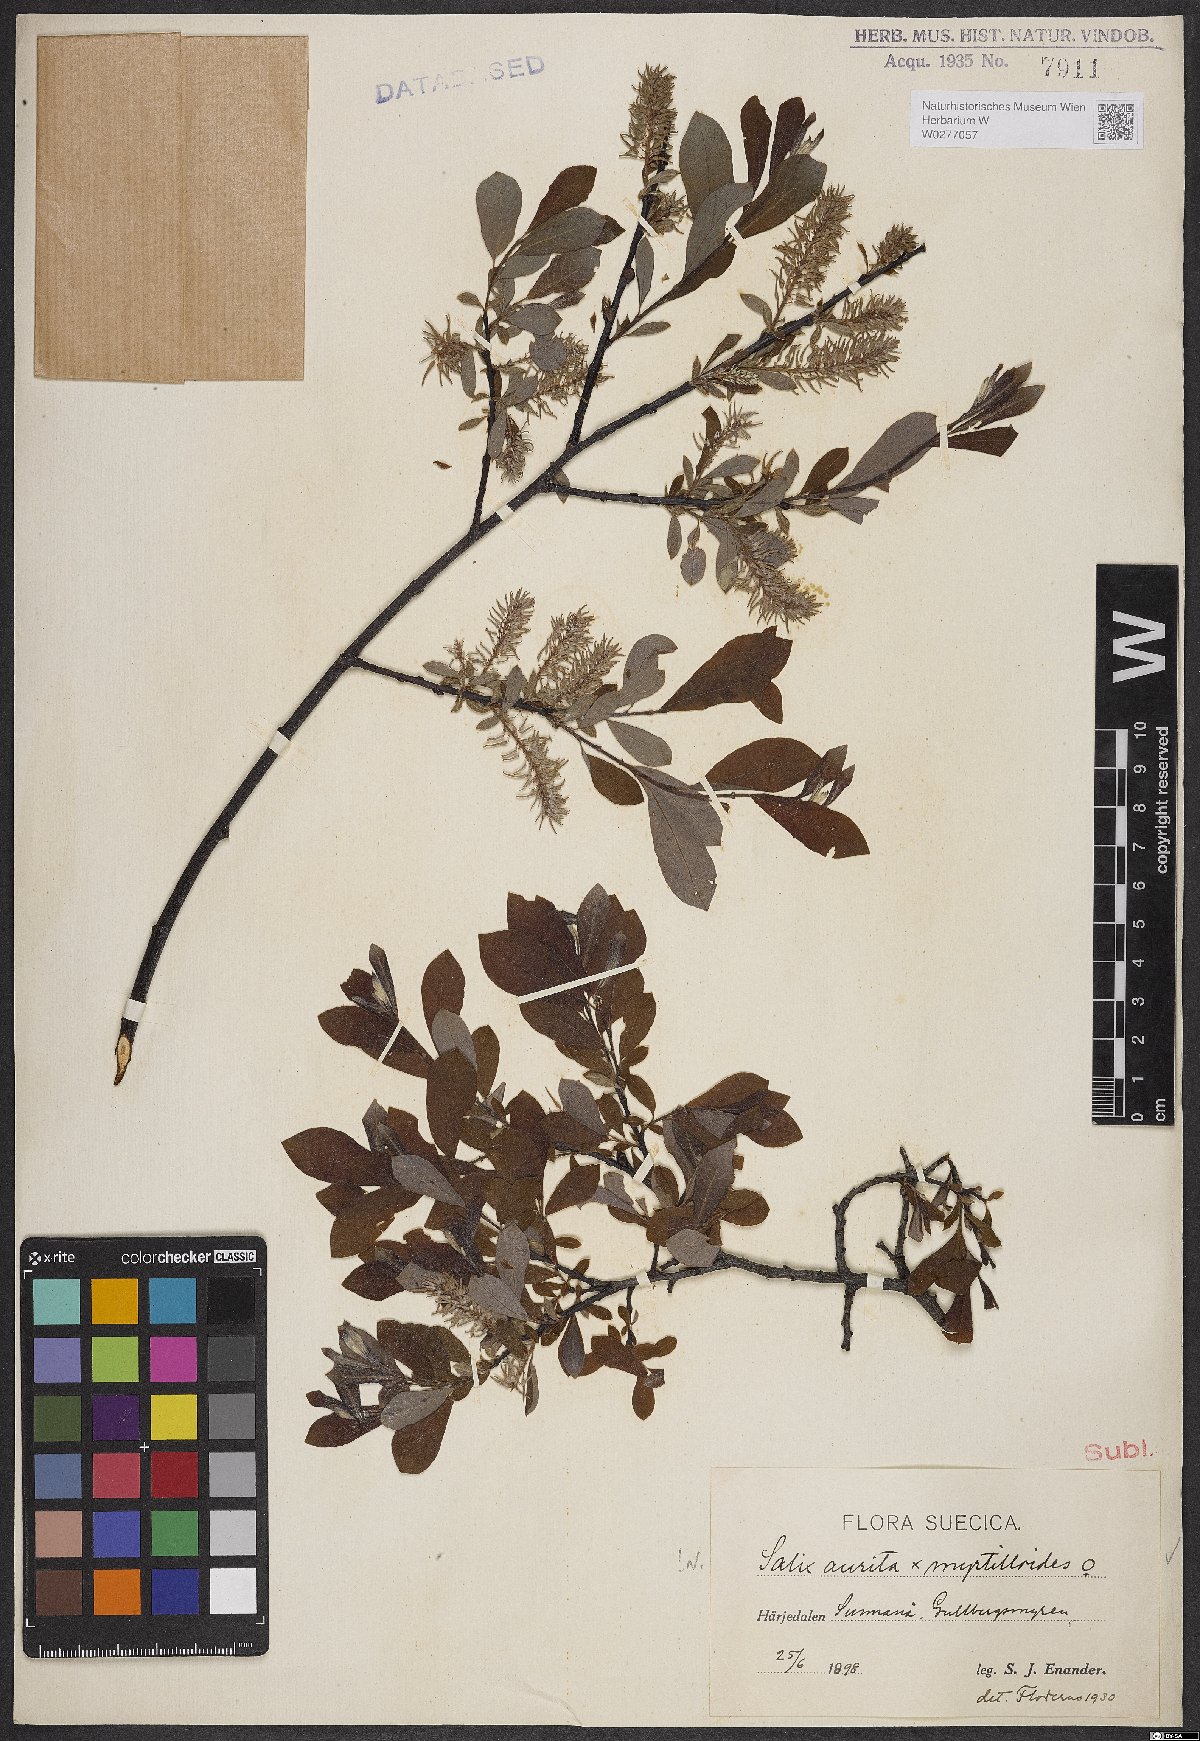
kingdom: Plantae
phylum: Tracheophyta
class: Magnoliopsida
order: Malpighiales
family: Salicaceae
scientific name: Salicaceae
